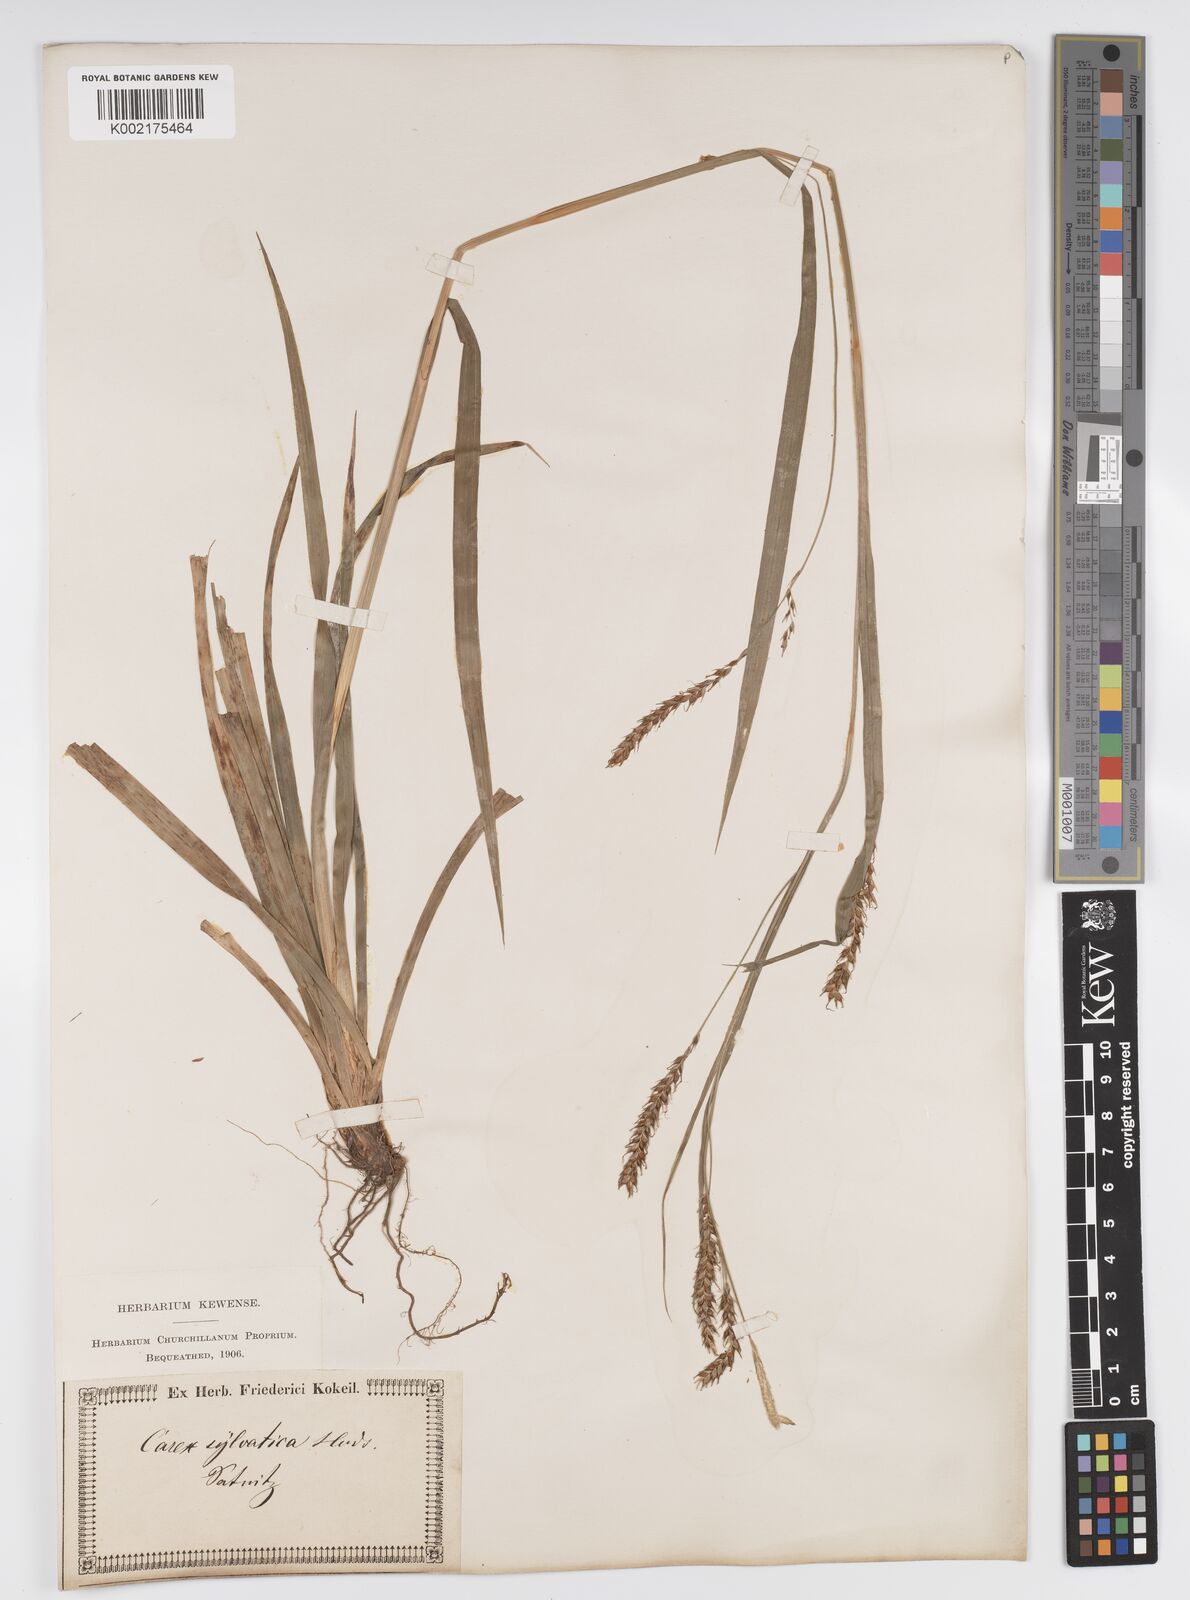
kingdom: Plantae
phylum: Tracheophyta
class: Liliopsida
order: Poales
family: Cyperaceae
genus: Carex
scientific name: Carex sylvatica
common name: Wood-sedge
